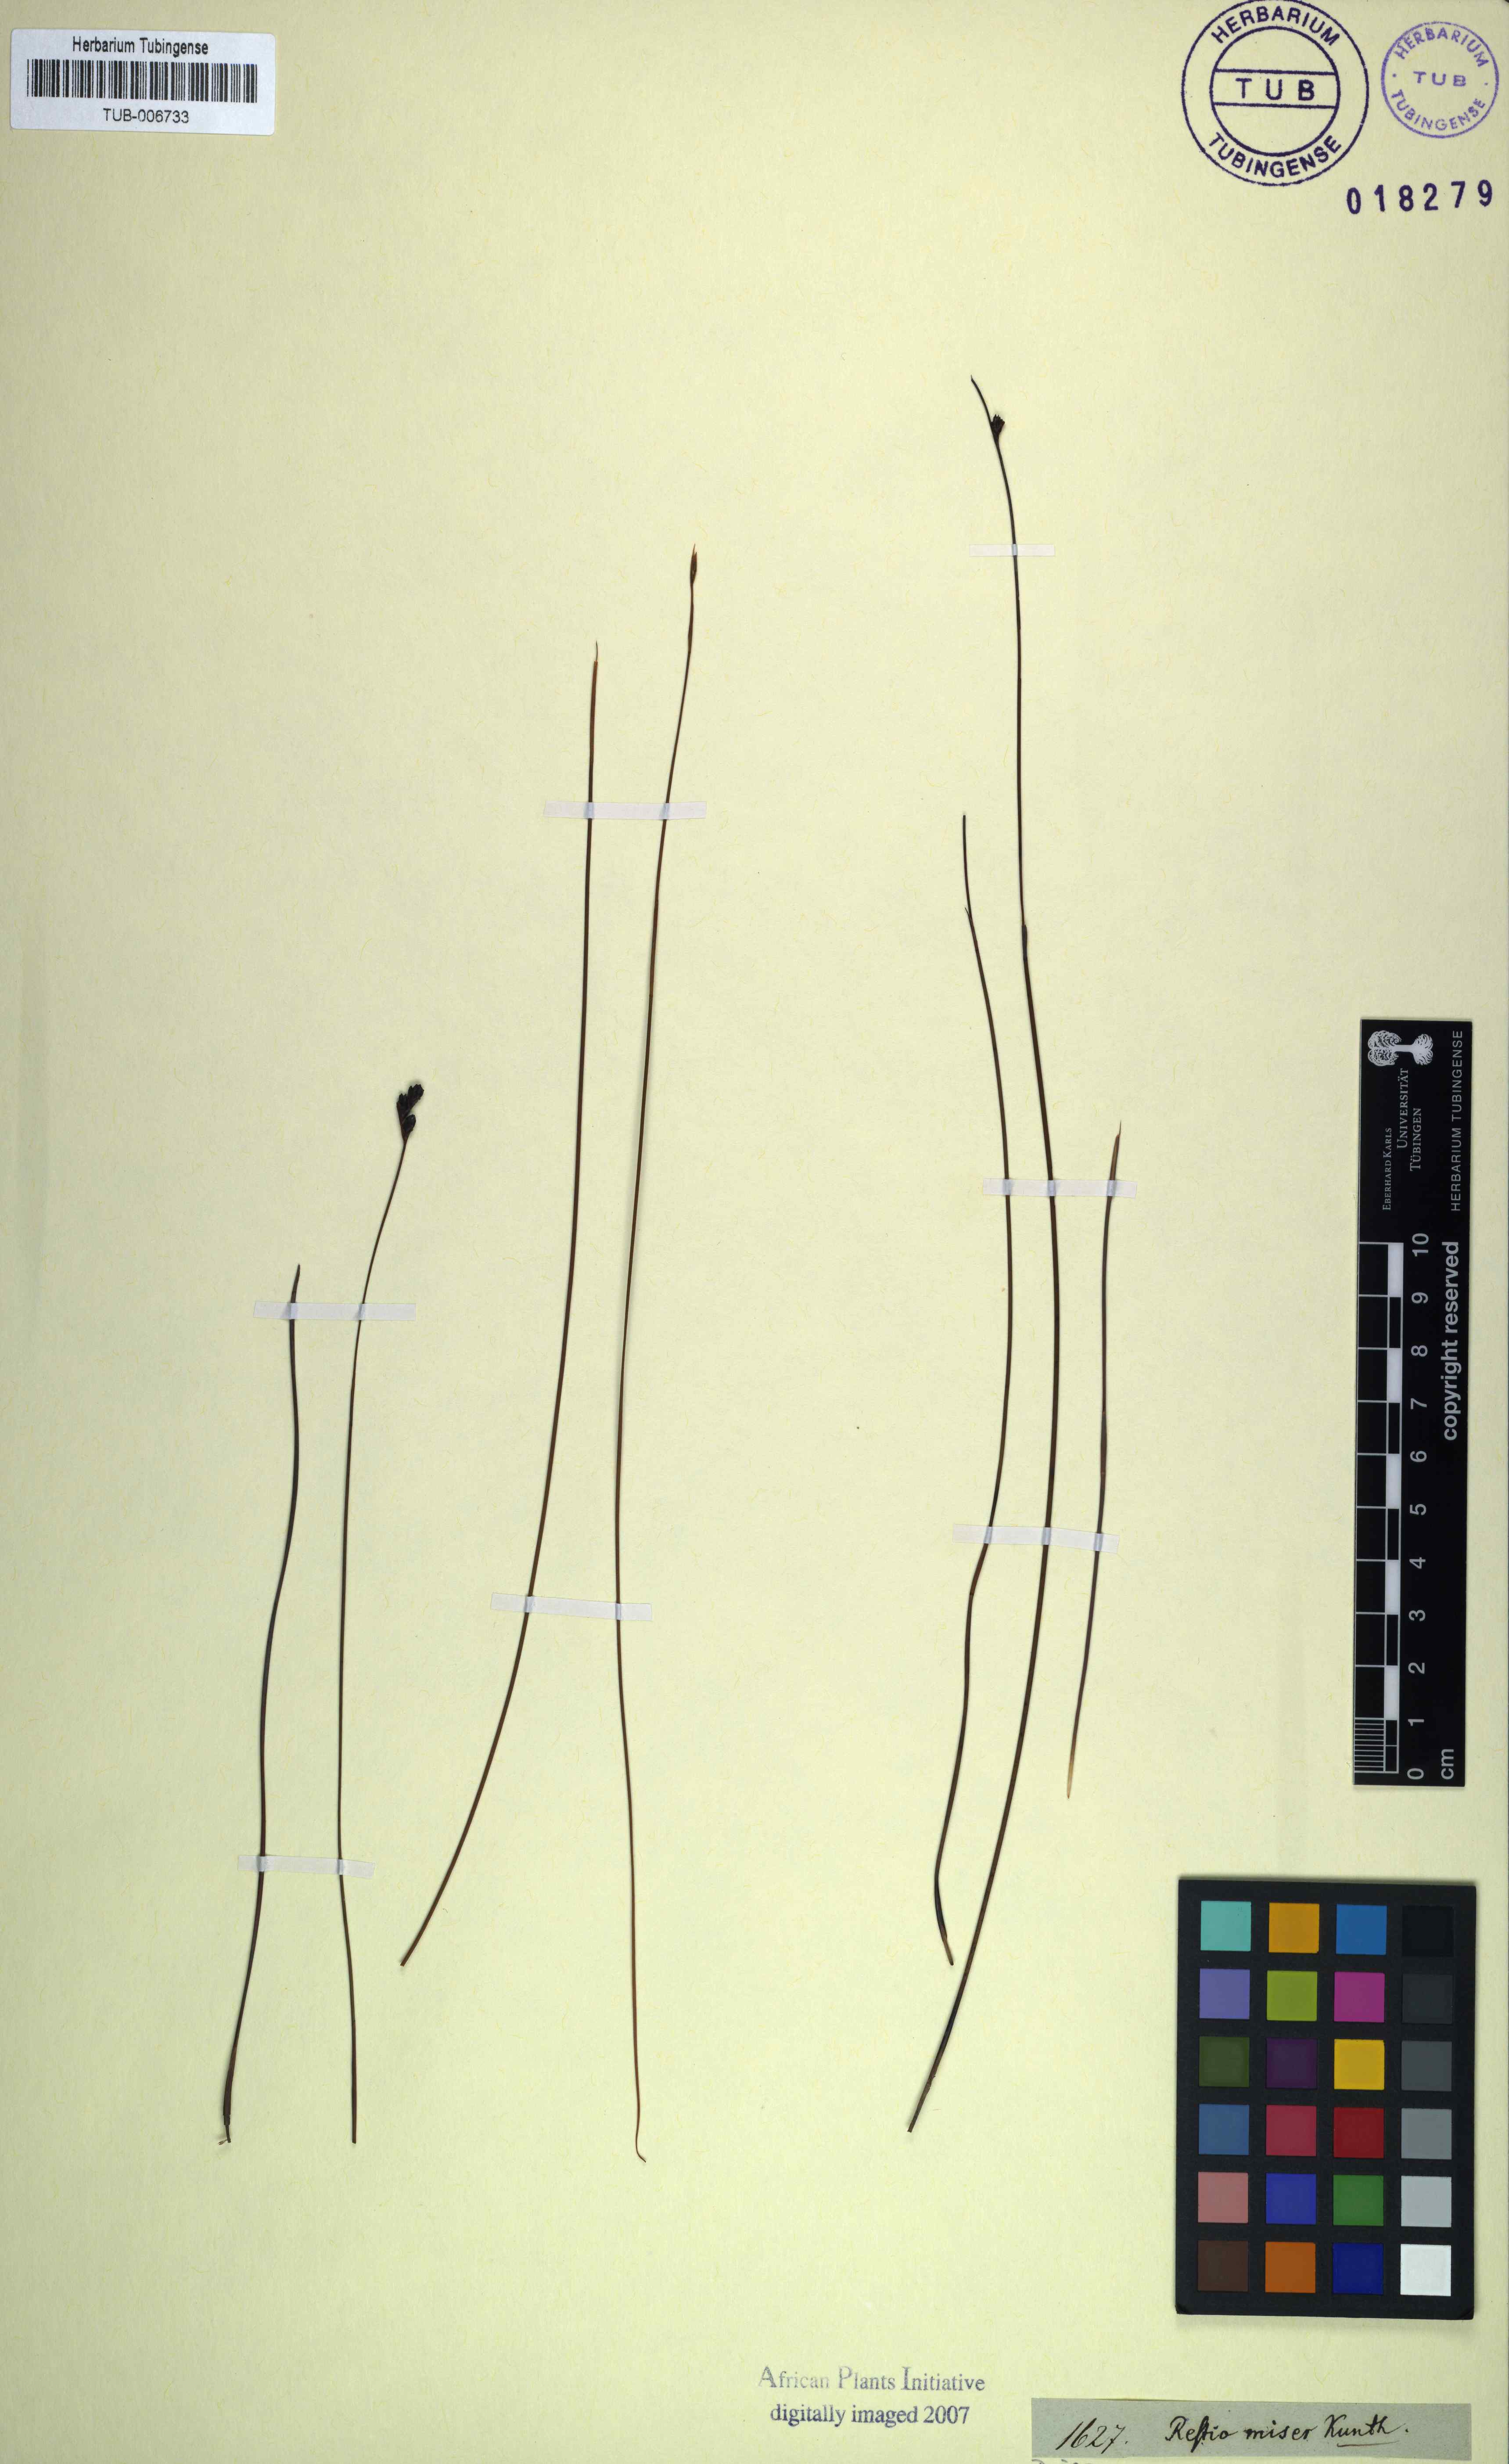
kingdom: Plantae
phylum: Tracheophyta
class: Liliopsida
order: Poales
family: Restionaceae
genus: Restio
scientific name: Restio miser
